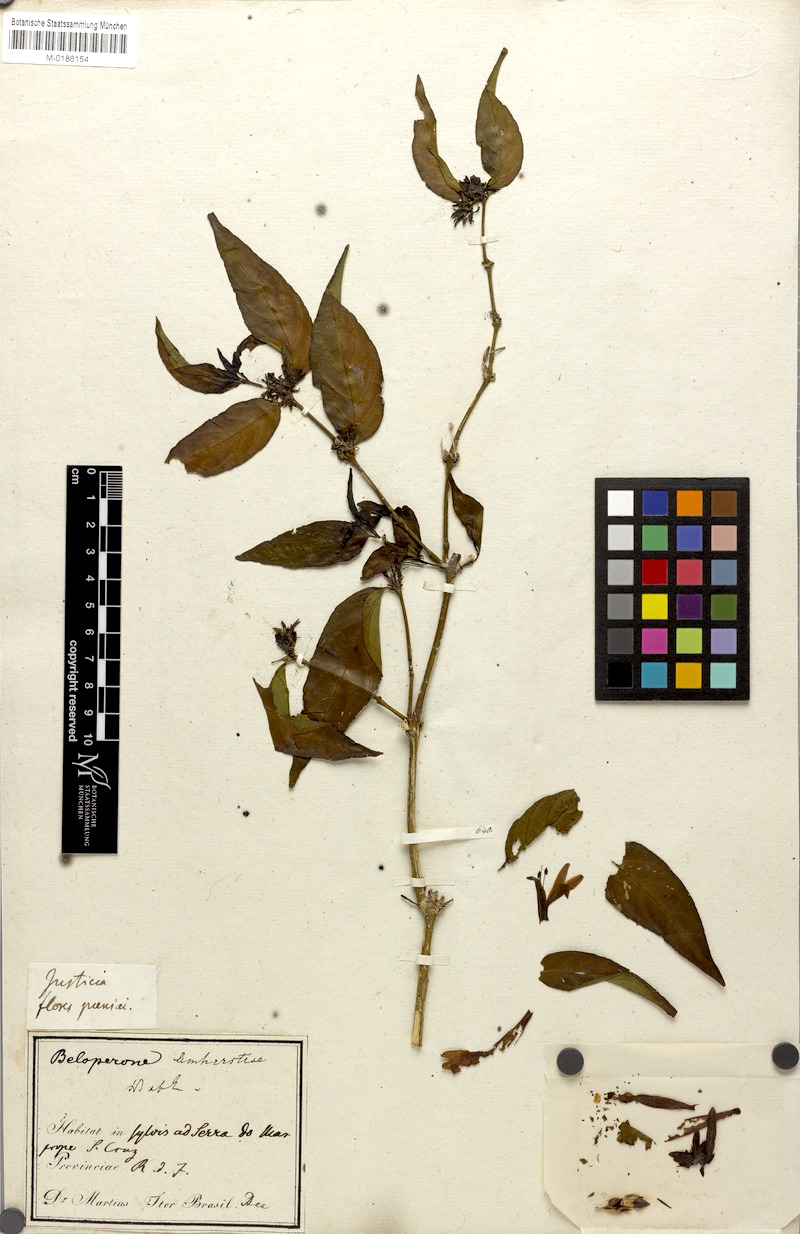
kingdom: Plantae
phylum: Tracheophyta
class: Magnoliopsida
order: Lamiales
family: Acanthaceae
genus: Justicia
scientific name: Justicia brasiliana
